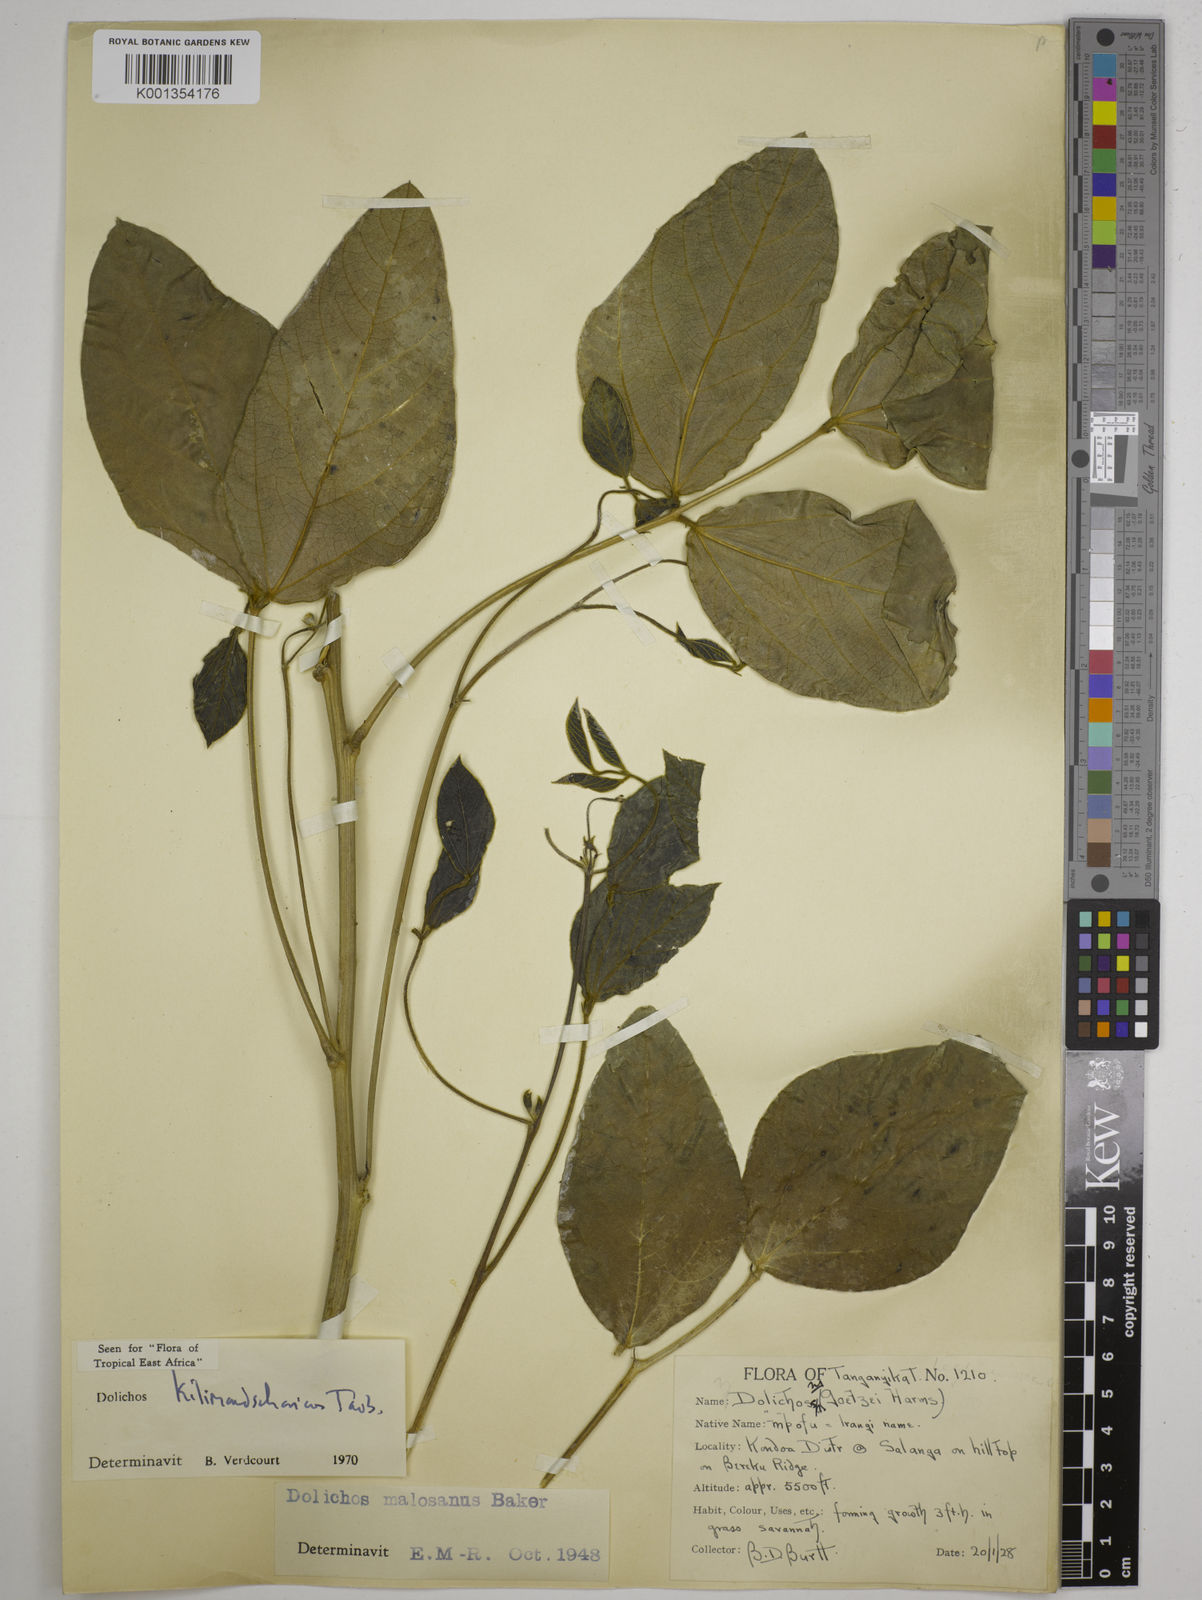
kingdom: Plantae
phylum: Tracheophyta
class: Magnoliopsida
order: Fabales
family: Fabaceae
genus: Dolichos
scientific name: Dolichos kilimandscharicus
